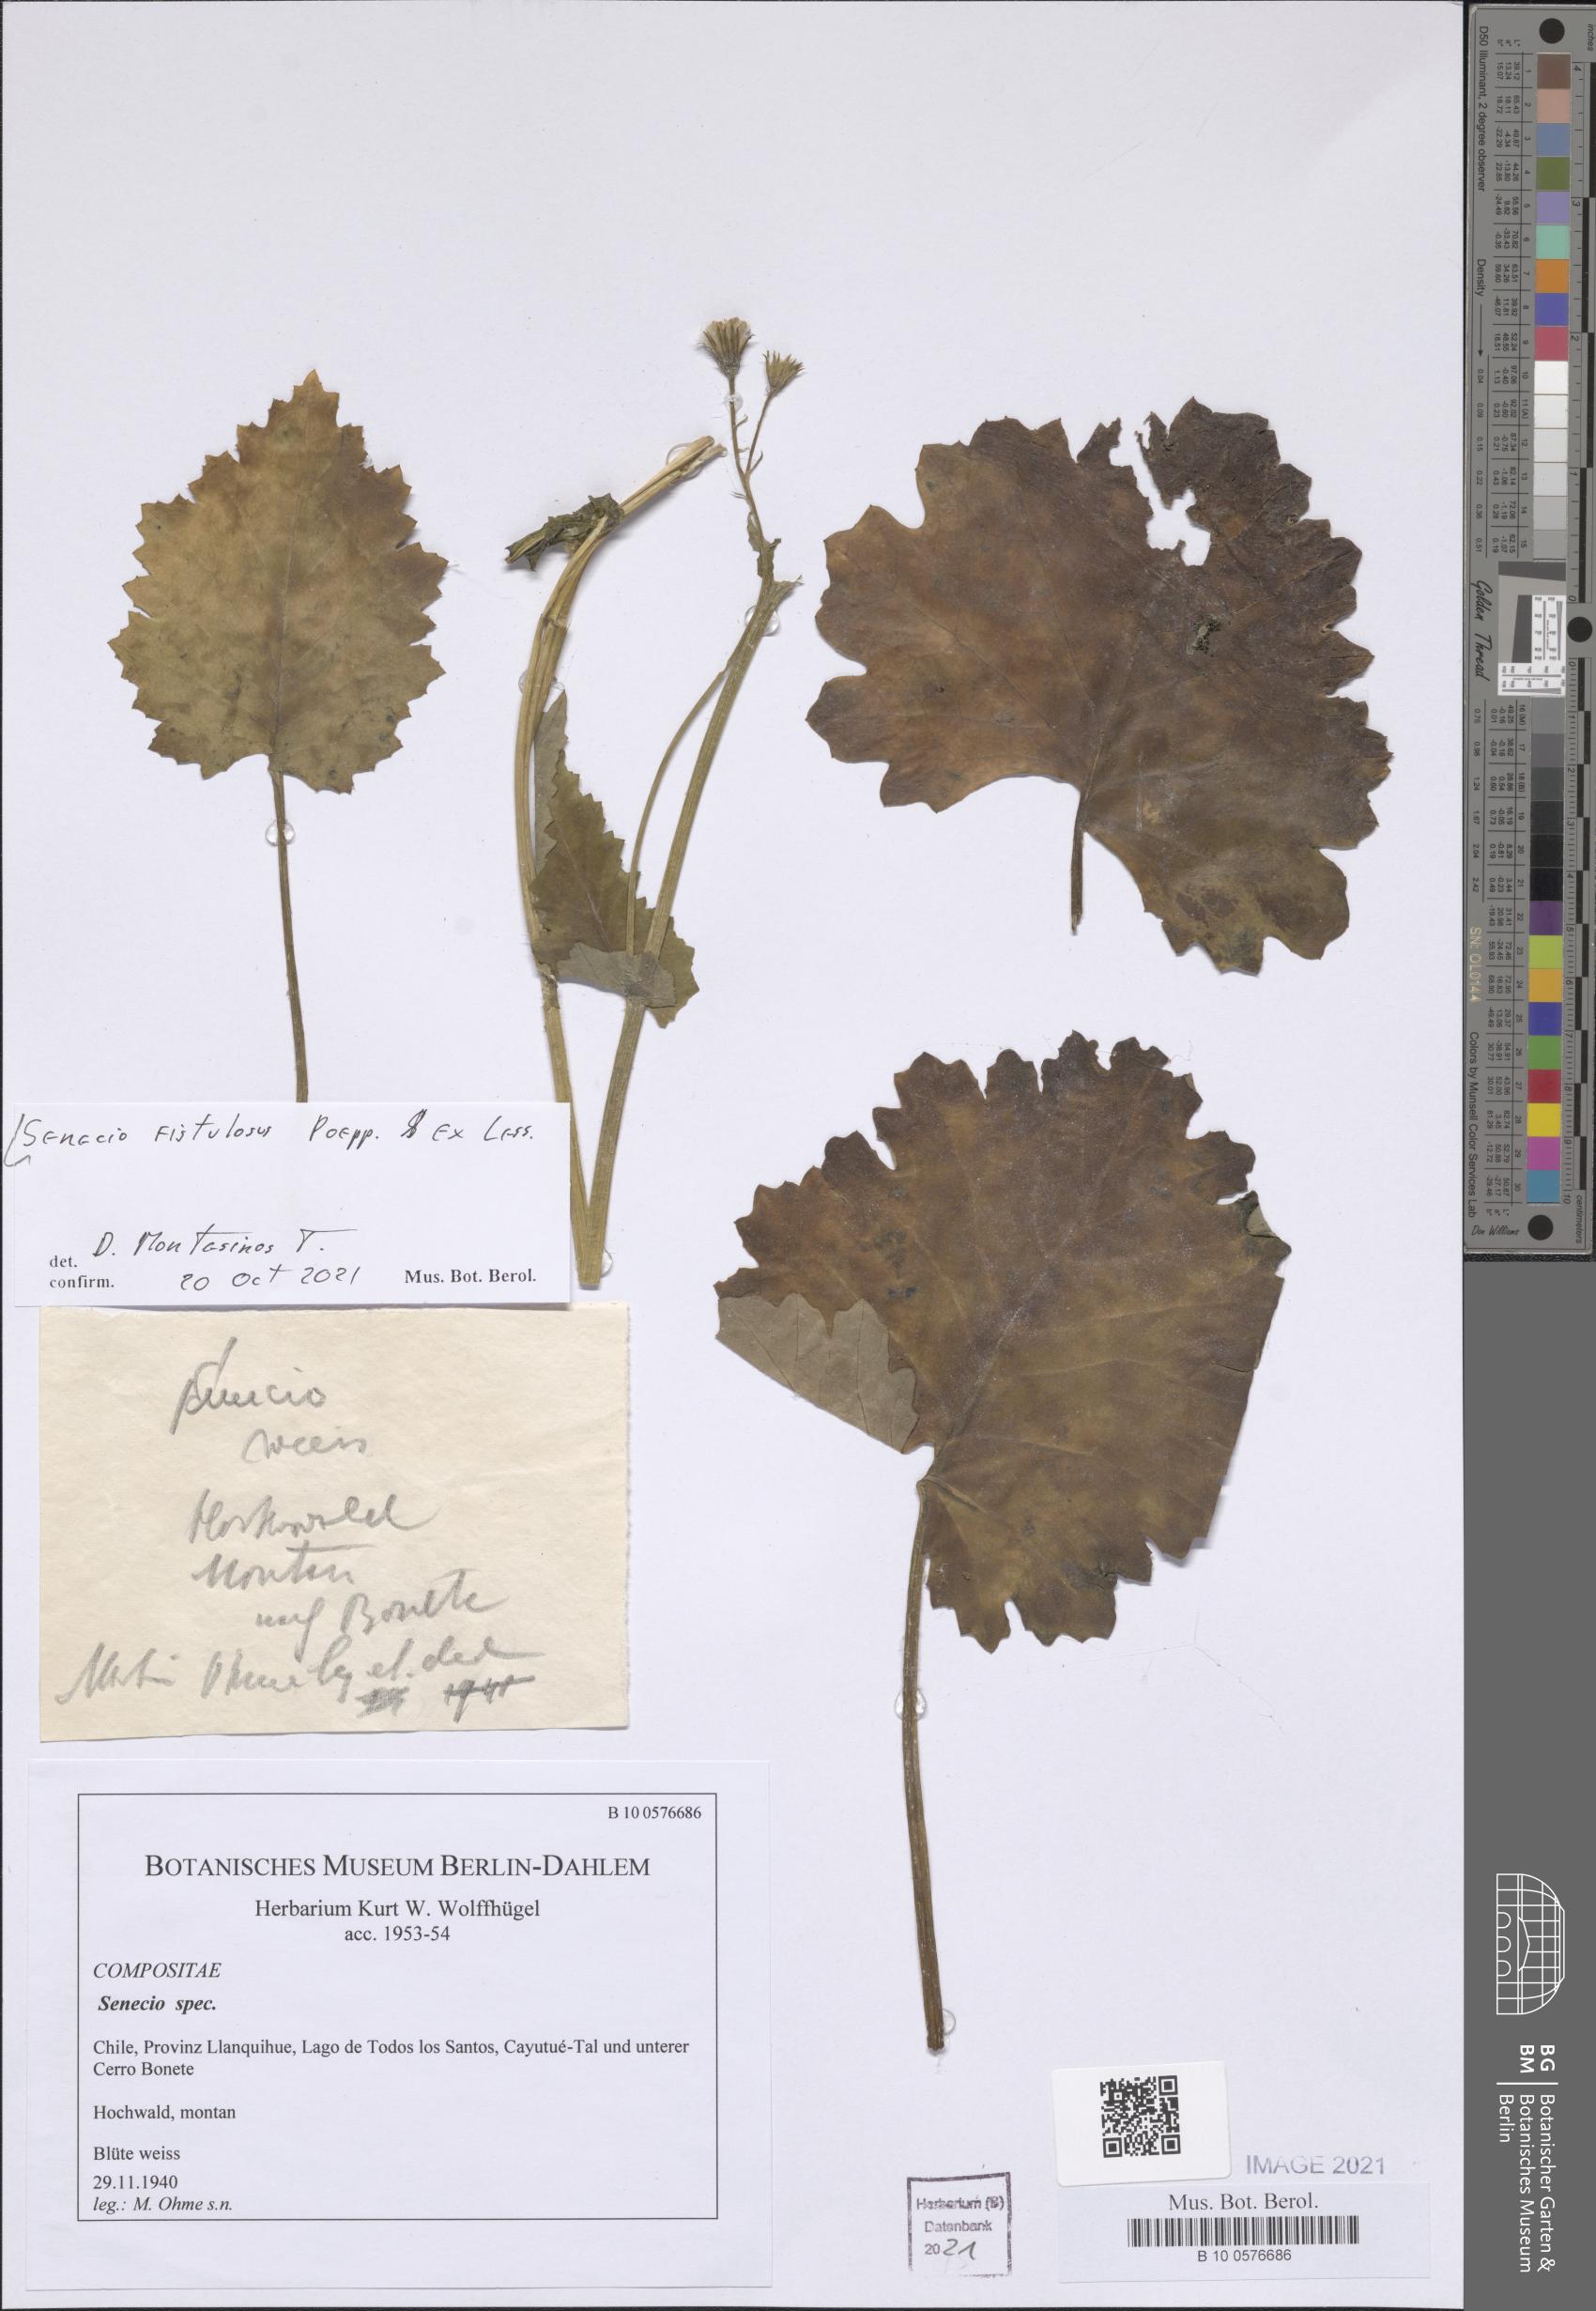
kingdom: Plantae
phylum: Tracheophyta
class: Magnoliopsida
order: Asterales
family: Asteraceae
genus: Senecio
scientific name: Senecio fistulosus
